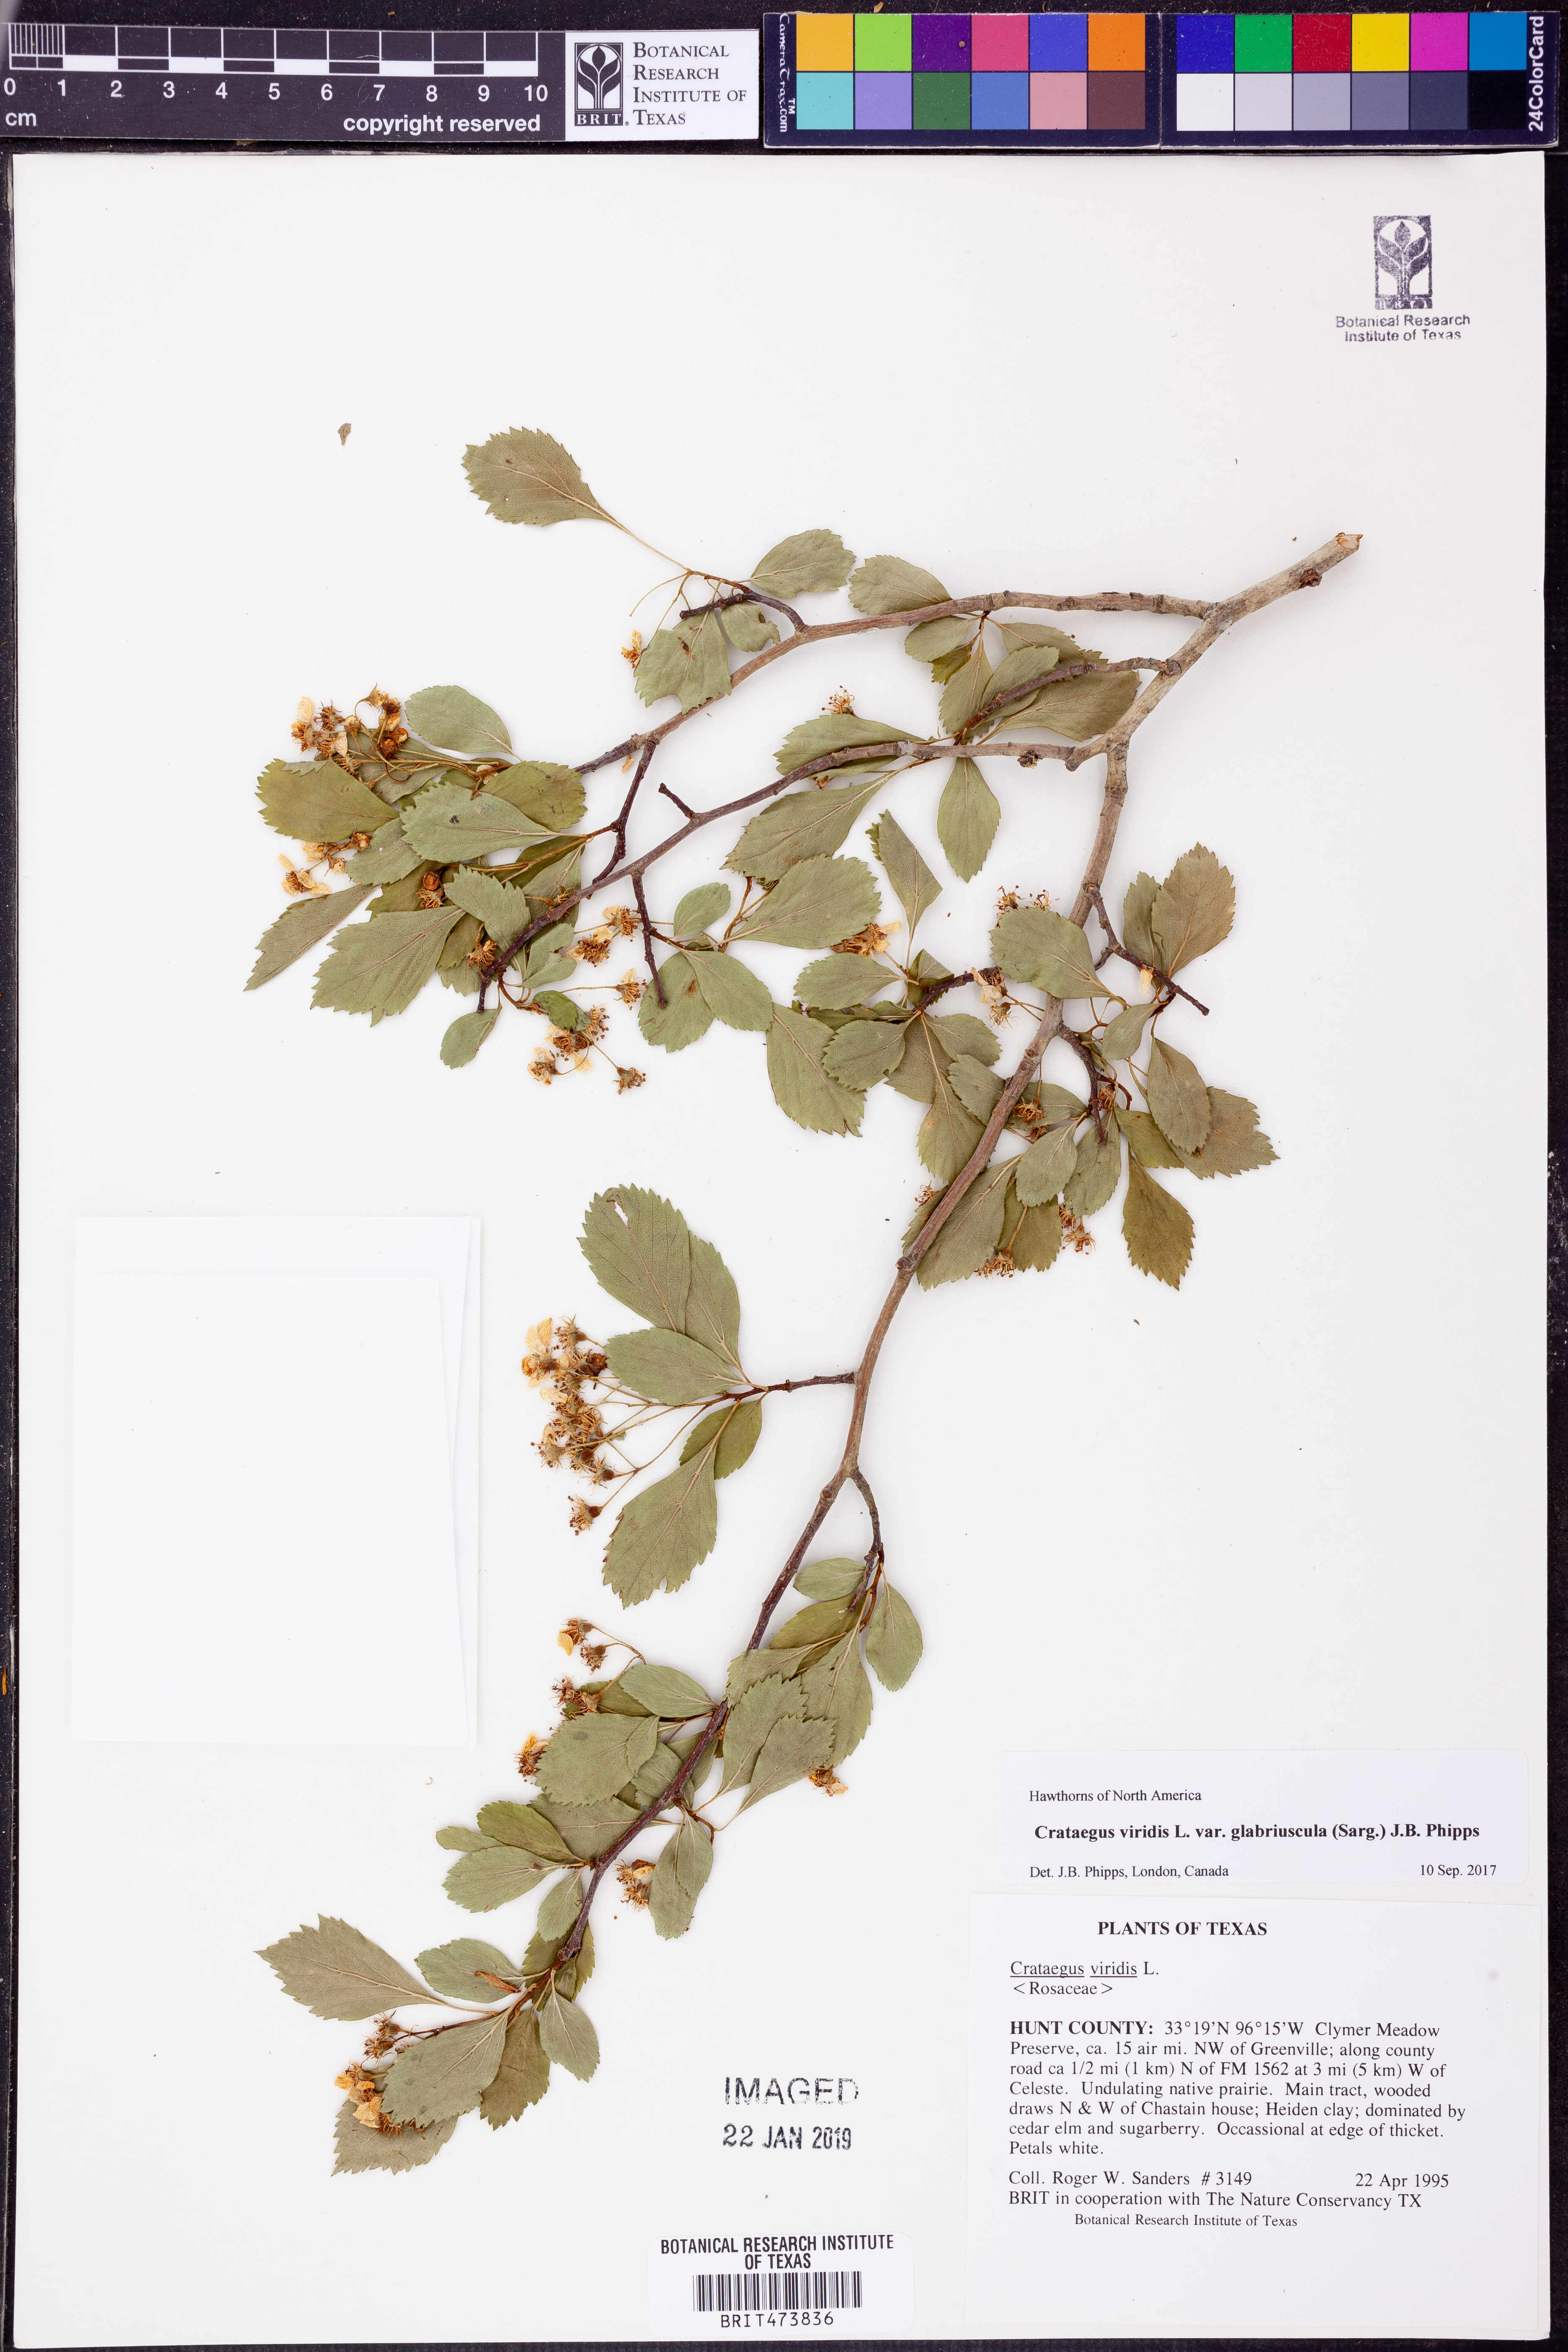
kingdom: Plantae
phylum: Tracheophyta
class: Magnoliopsida
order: Rosales
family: Rosaceae
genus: Crataegus
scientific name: Crataegus viridis
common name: Southernthorn
